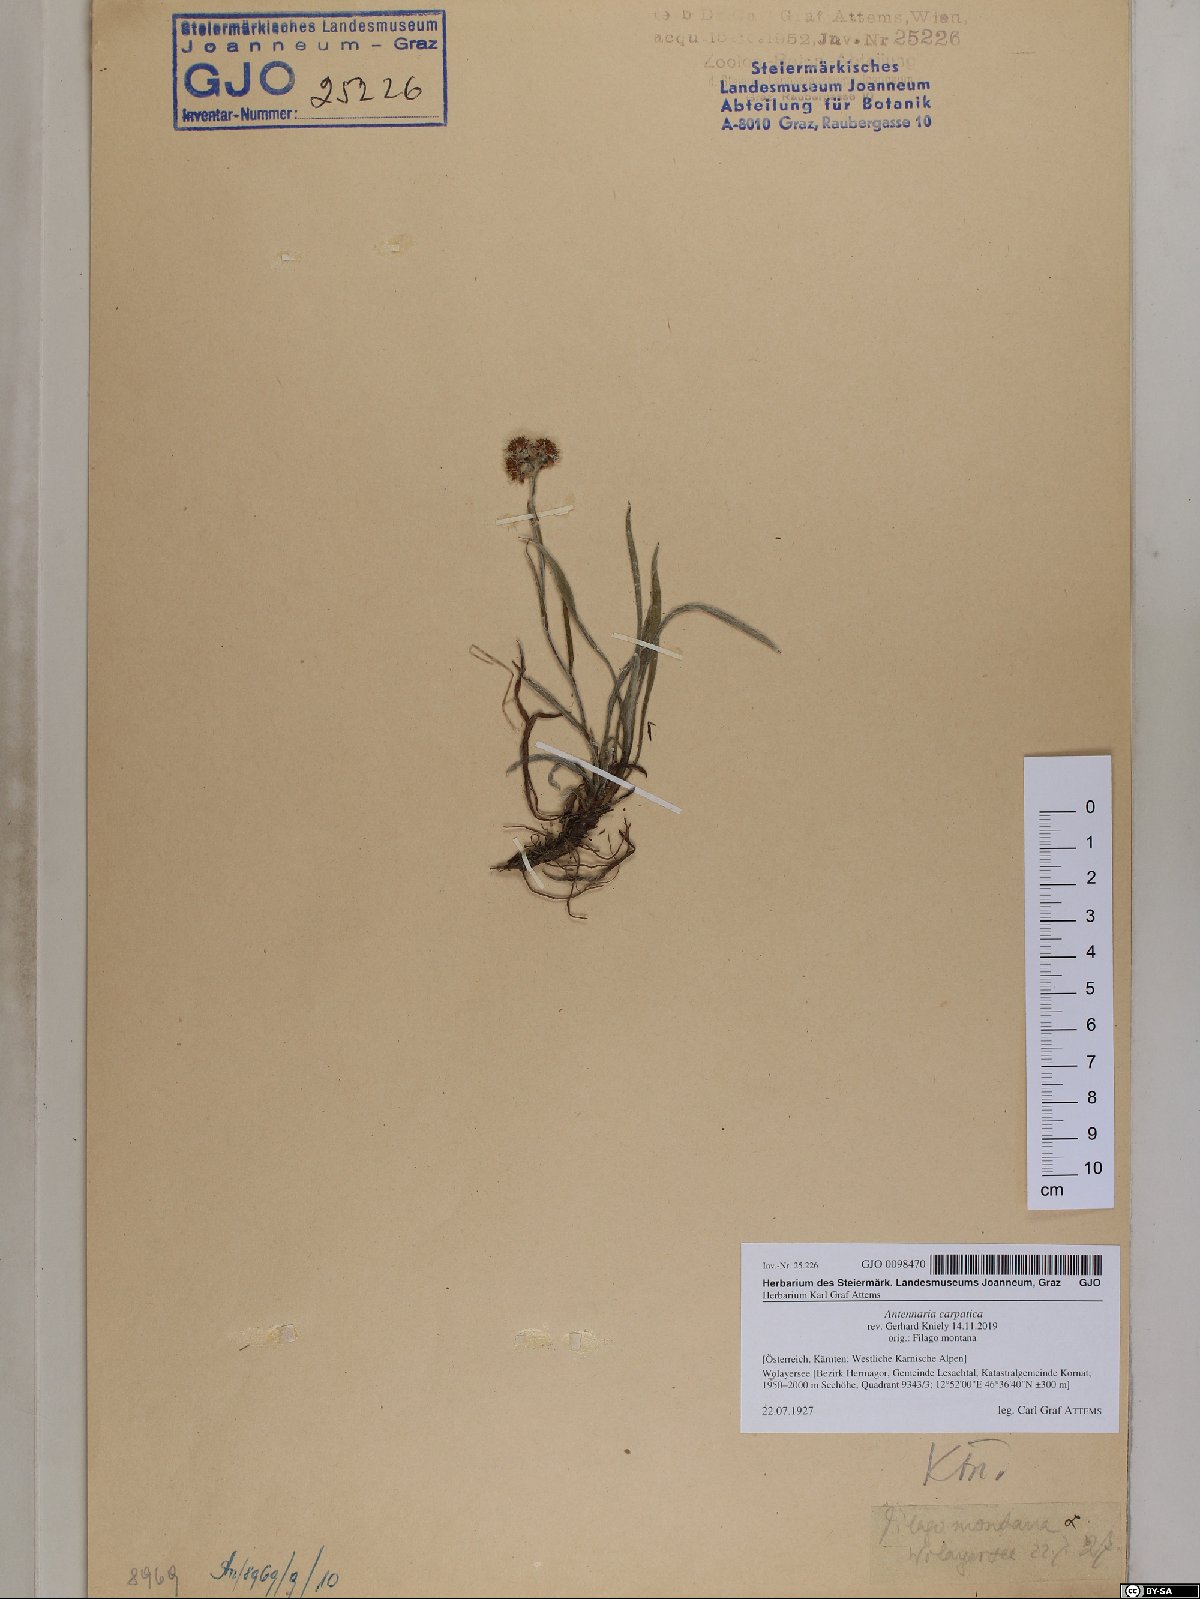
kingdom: Plantae
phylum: Tracheophyta
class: Magnoliopsida
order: Asterales
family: Asteraceae
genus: Antennaria
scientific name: Antennaria carpatica
